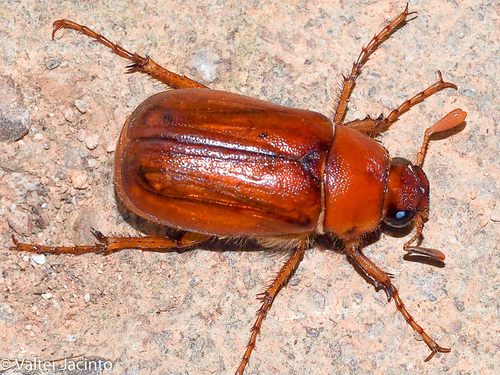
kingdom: Animalia
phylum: Arthropoda
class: Insecta
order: Coleoptera
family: Scarabaeidae
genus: Rhizotrogus
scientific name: Rhizotrogus villiersi
